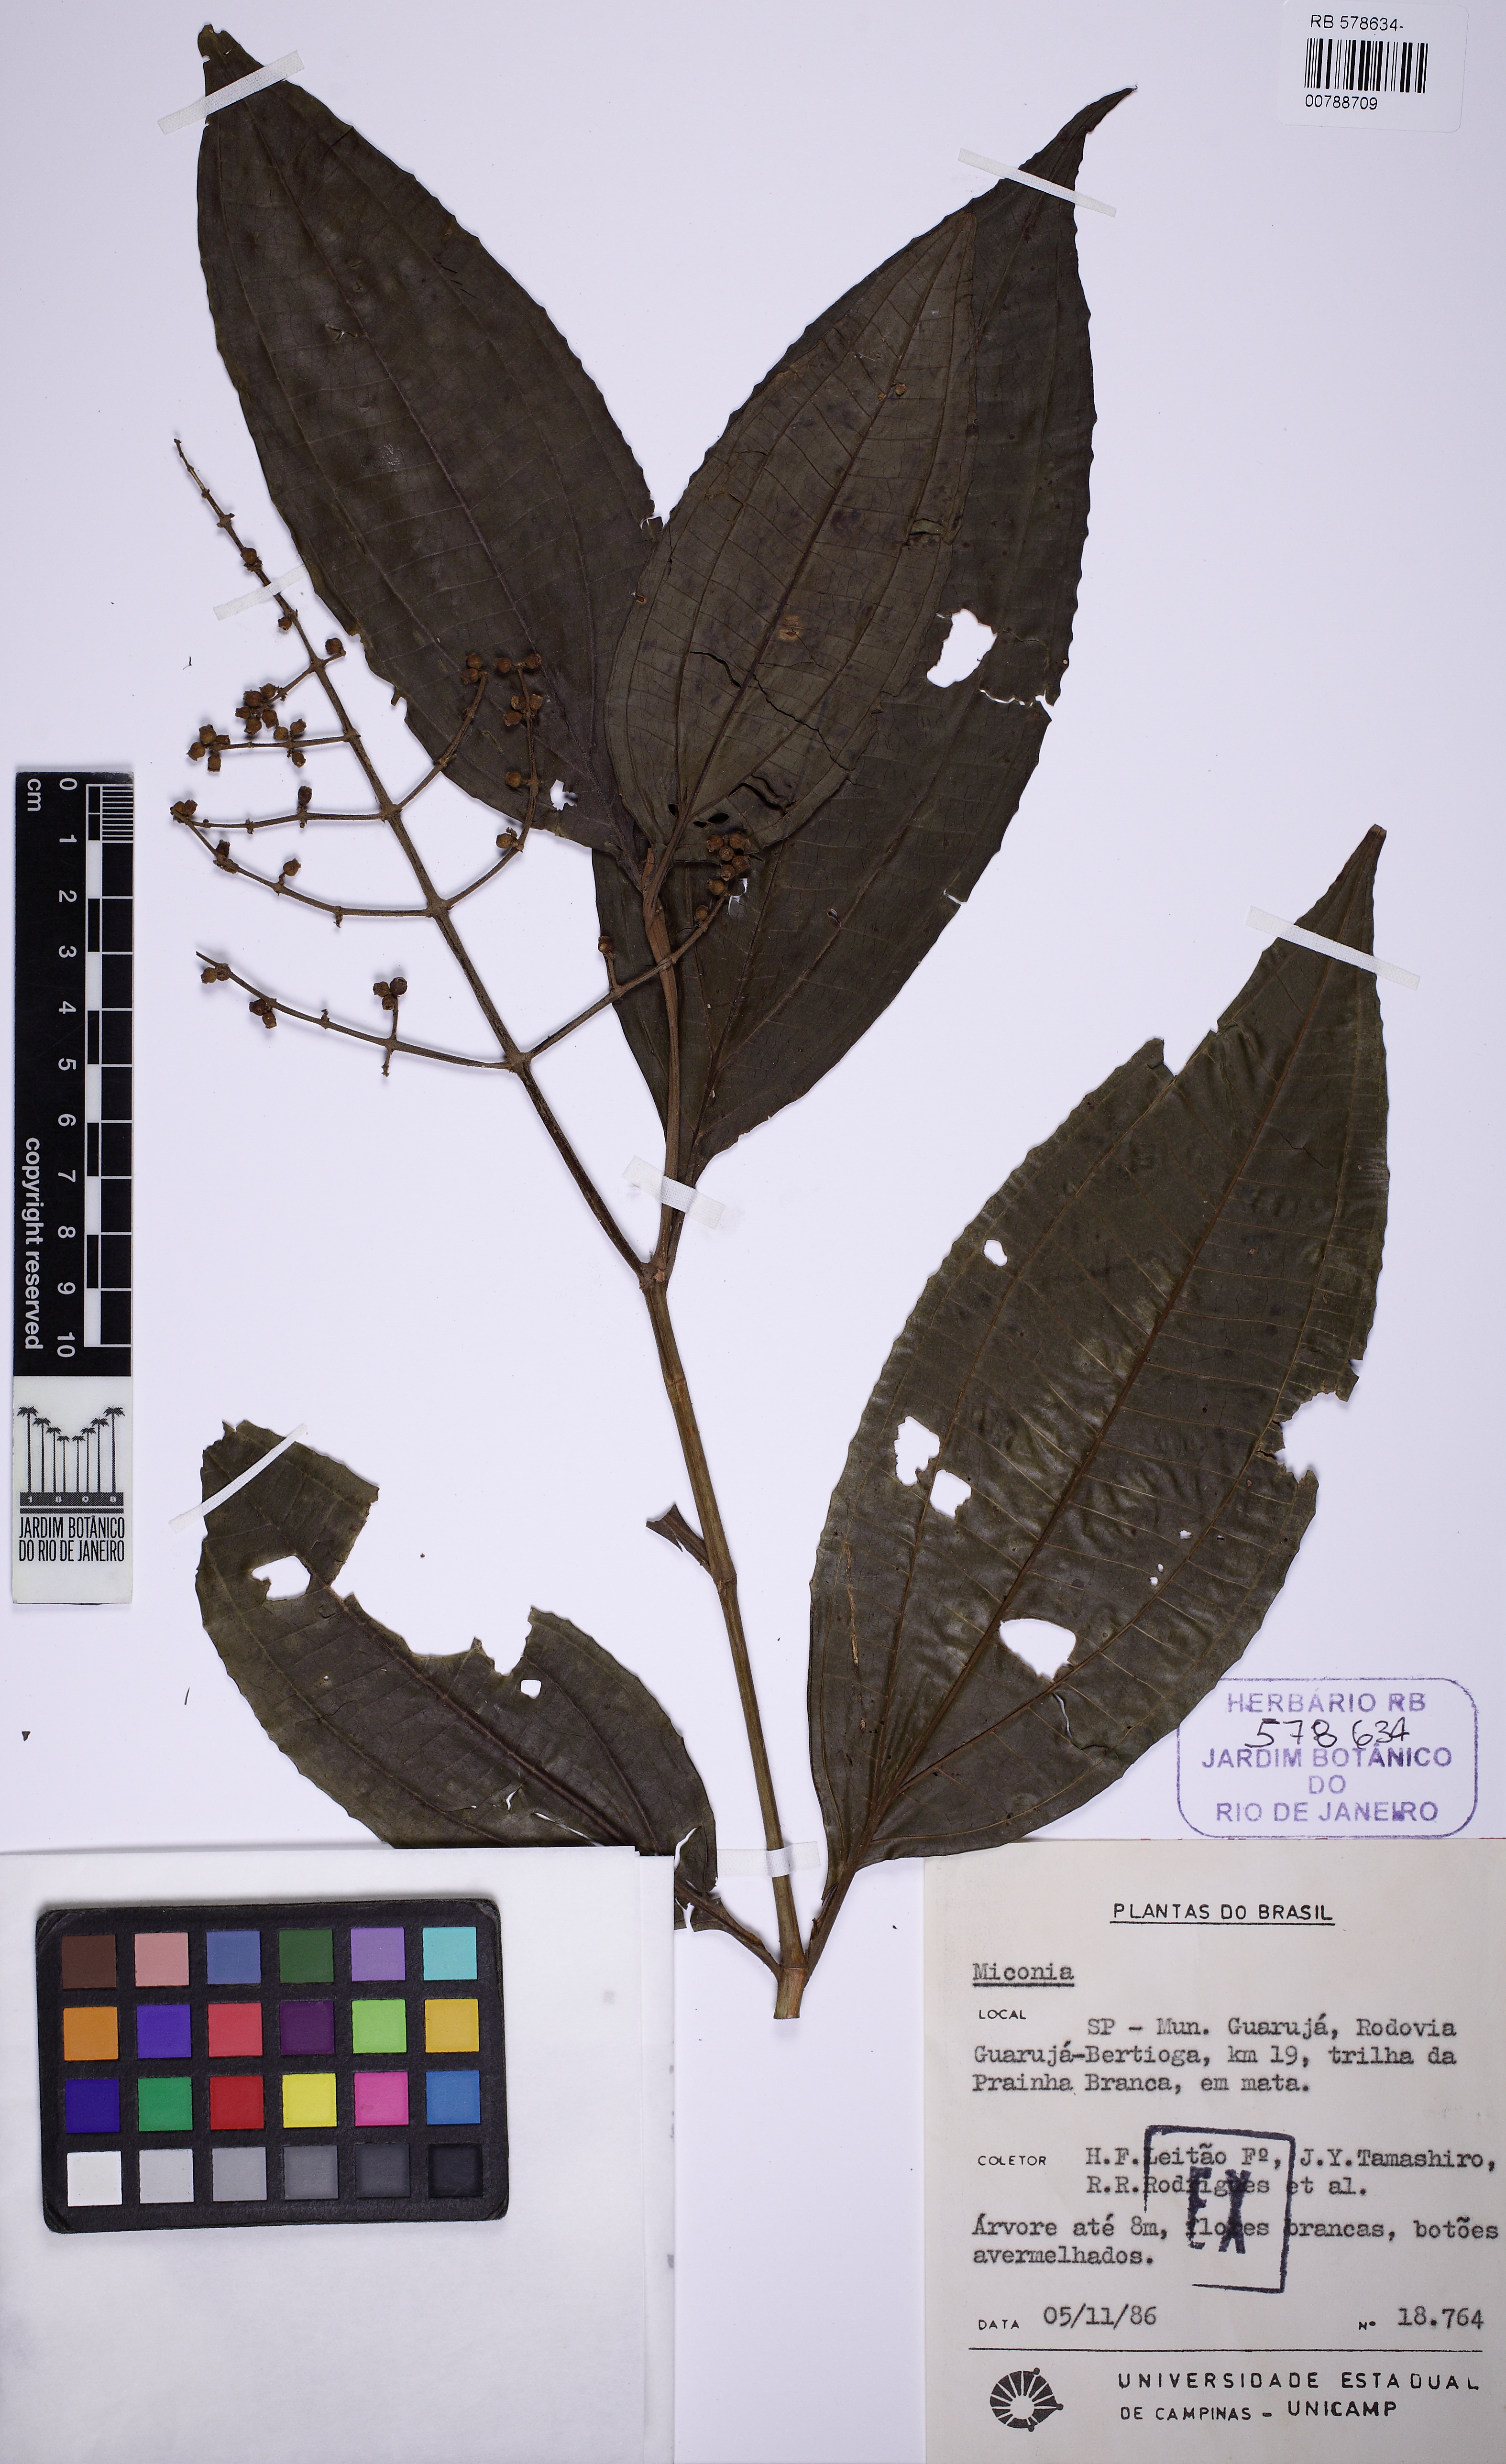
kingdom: Plantae
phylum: Tracheophyta
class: Magnoliopsida
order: Myrtales
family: Melastomataceae
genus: Miconia
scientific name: Miconia prasina
